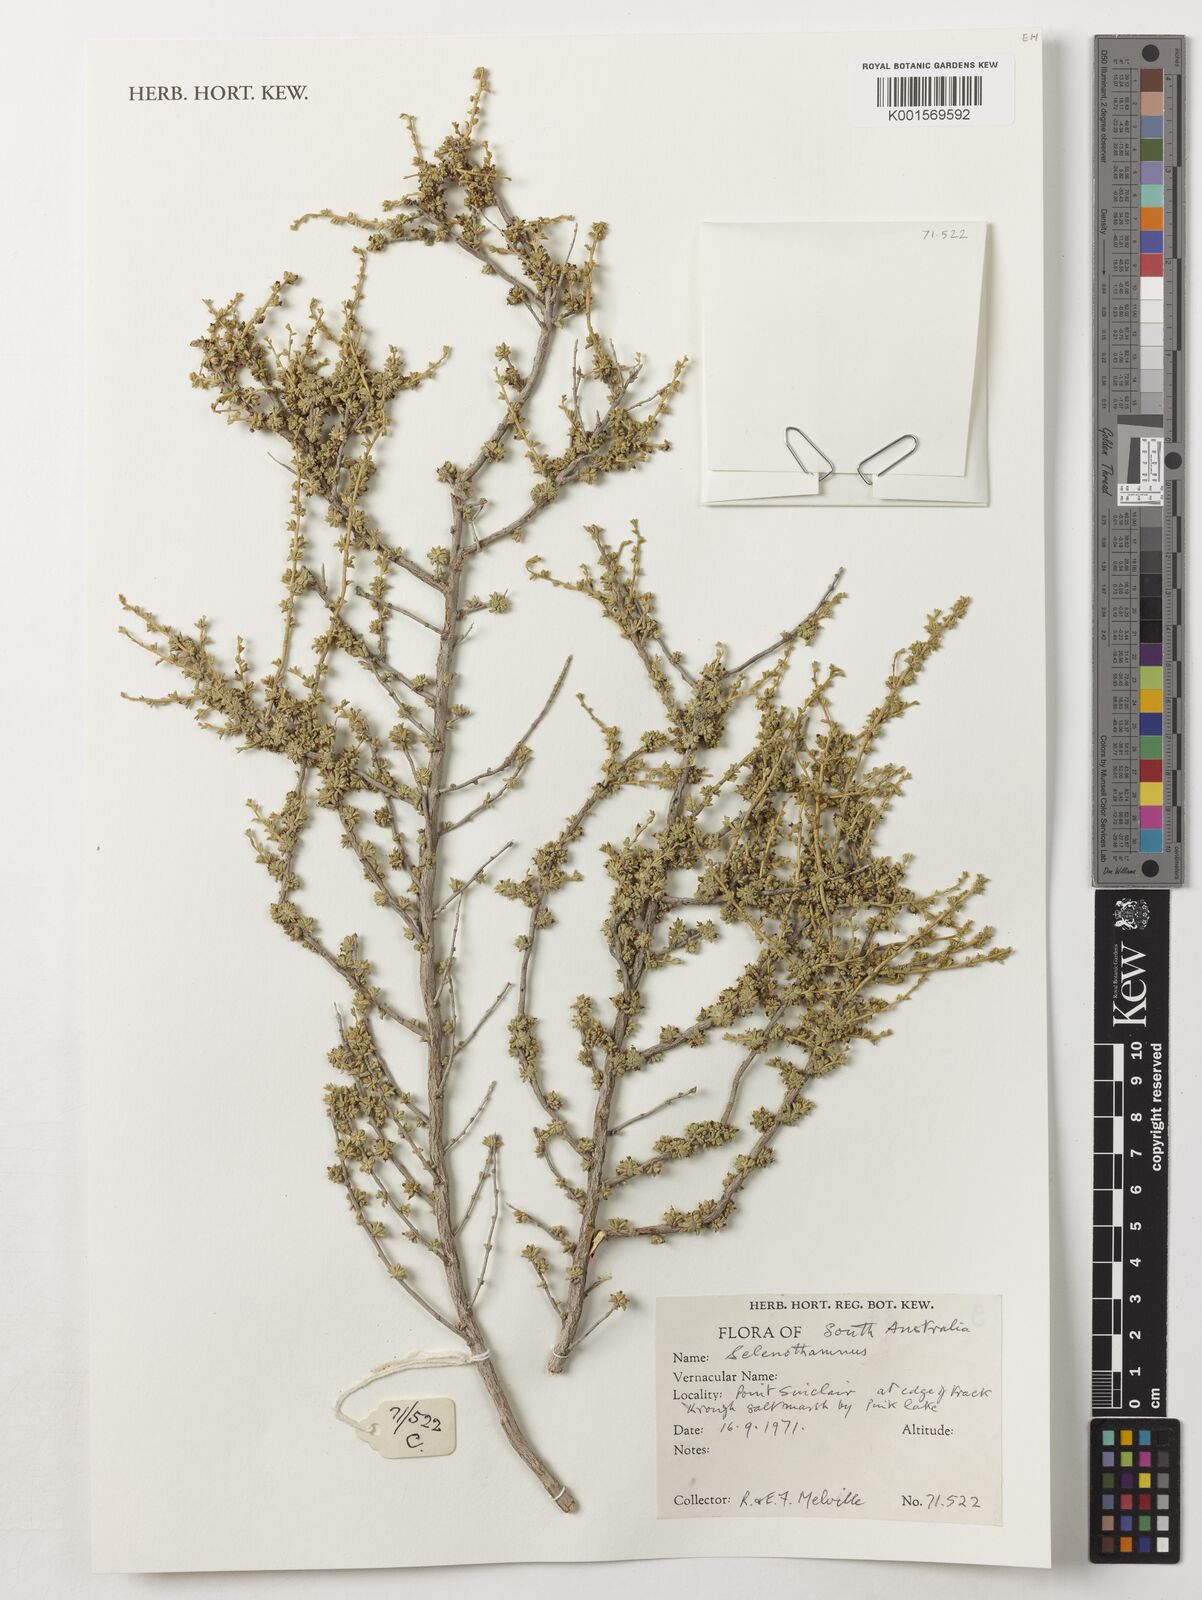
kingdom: Plantae
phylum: Tracheophyta
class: Magnoliopsida
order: Malvales
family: Malvaceae
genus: Lawrencia
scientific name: Lawrencia
